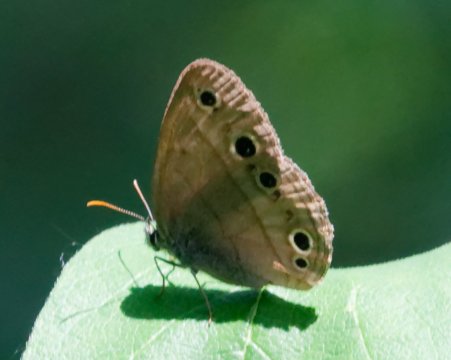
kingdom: Animalia
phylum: Arthropoda
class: Insecta
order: Lepidoptera
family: Nymphalidae
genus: Euptychia
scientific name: Euptychia cymela
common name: Little Wood Satyr
